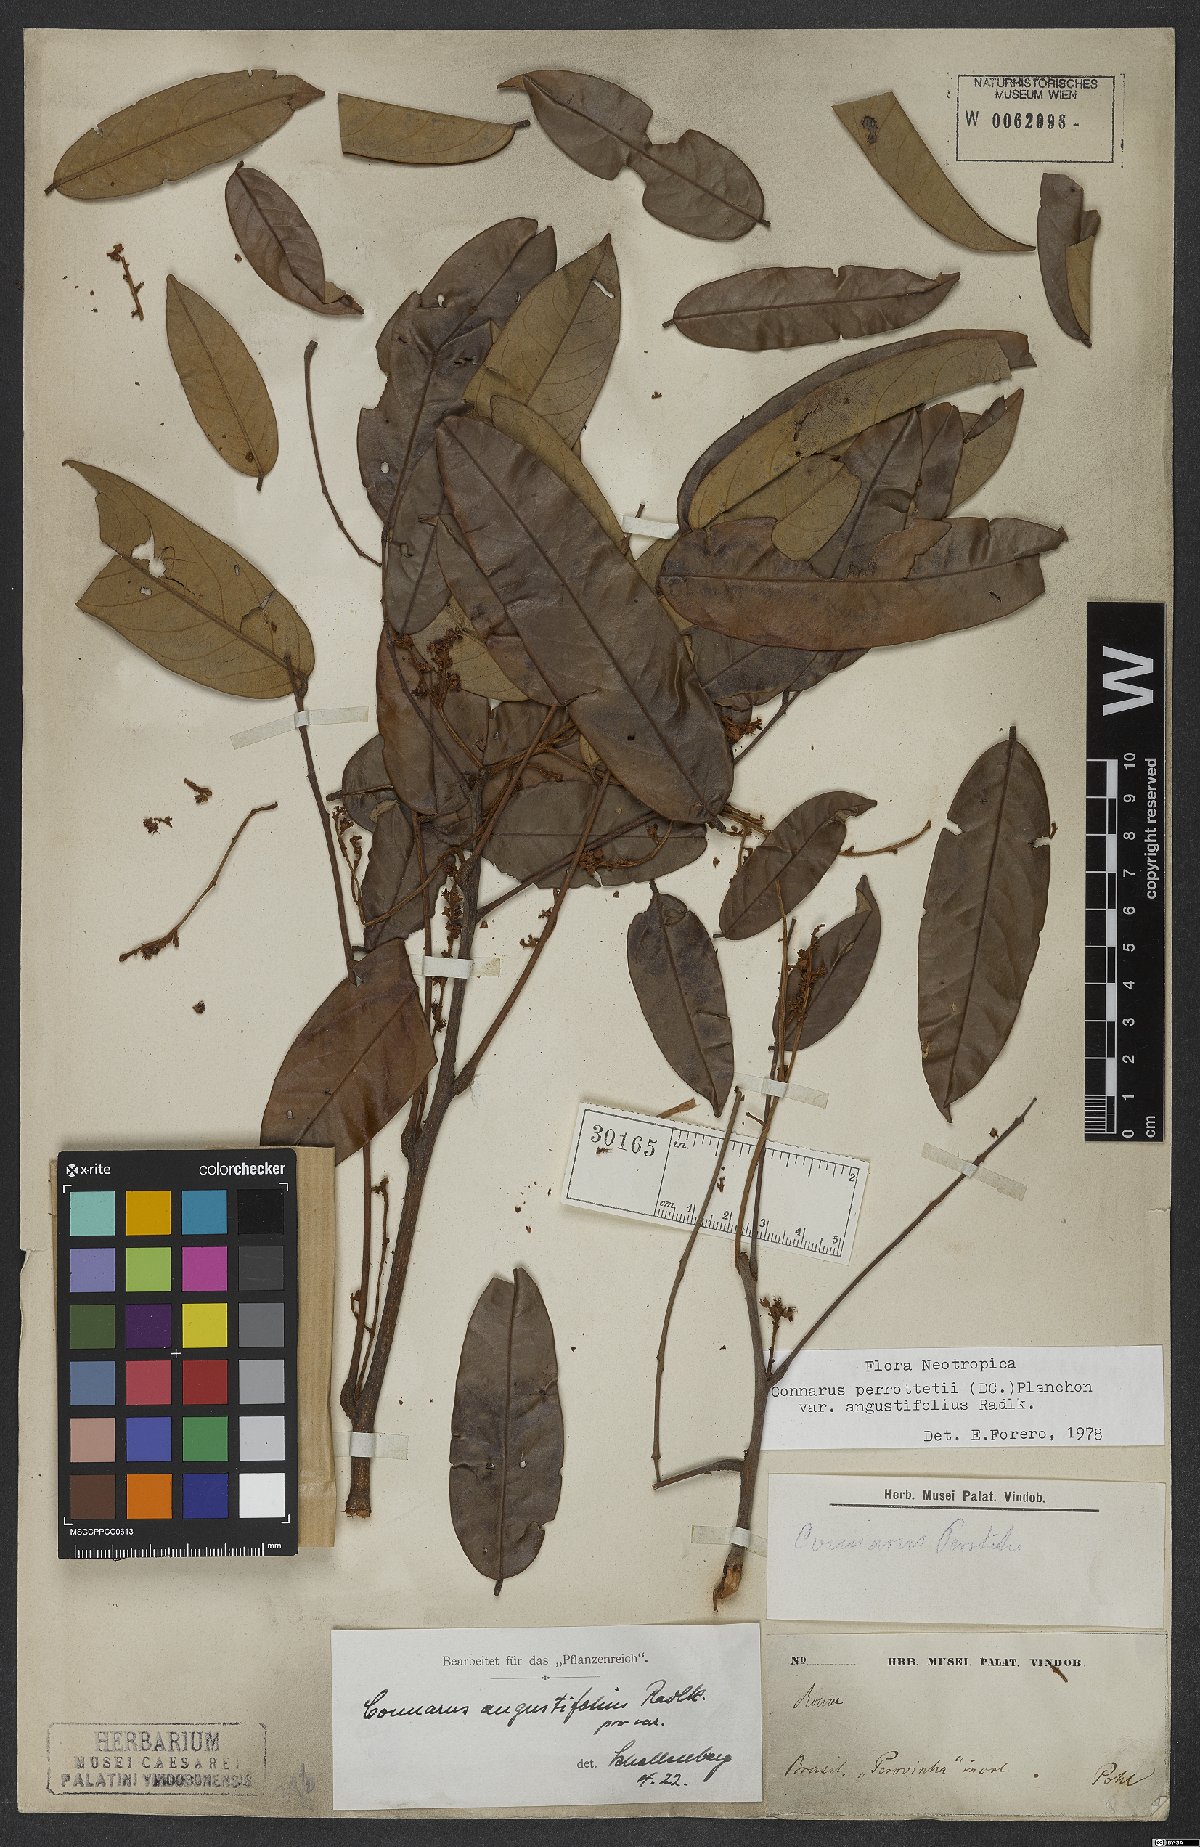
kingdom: Plantae
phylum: Tracheophyta
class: Magnoliopsida
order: Oxalidales
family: Connaraceae
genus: Connarus
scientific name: Connarus perrottetii
